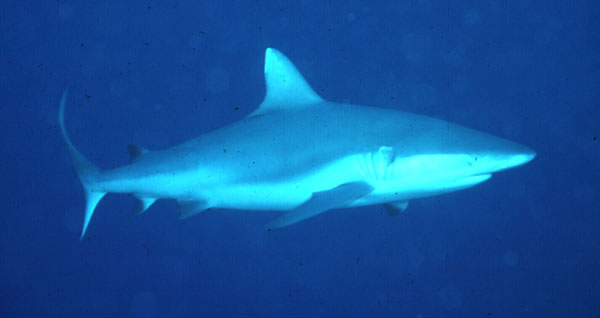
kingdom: Animalia
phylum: Chordata
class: Elasmobranchii
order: Carcharhiniformes
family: Carcharhinidae
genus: Carcharhinus
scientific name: Carcharhinus amblyrhynchos
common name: Grey reef shark
